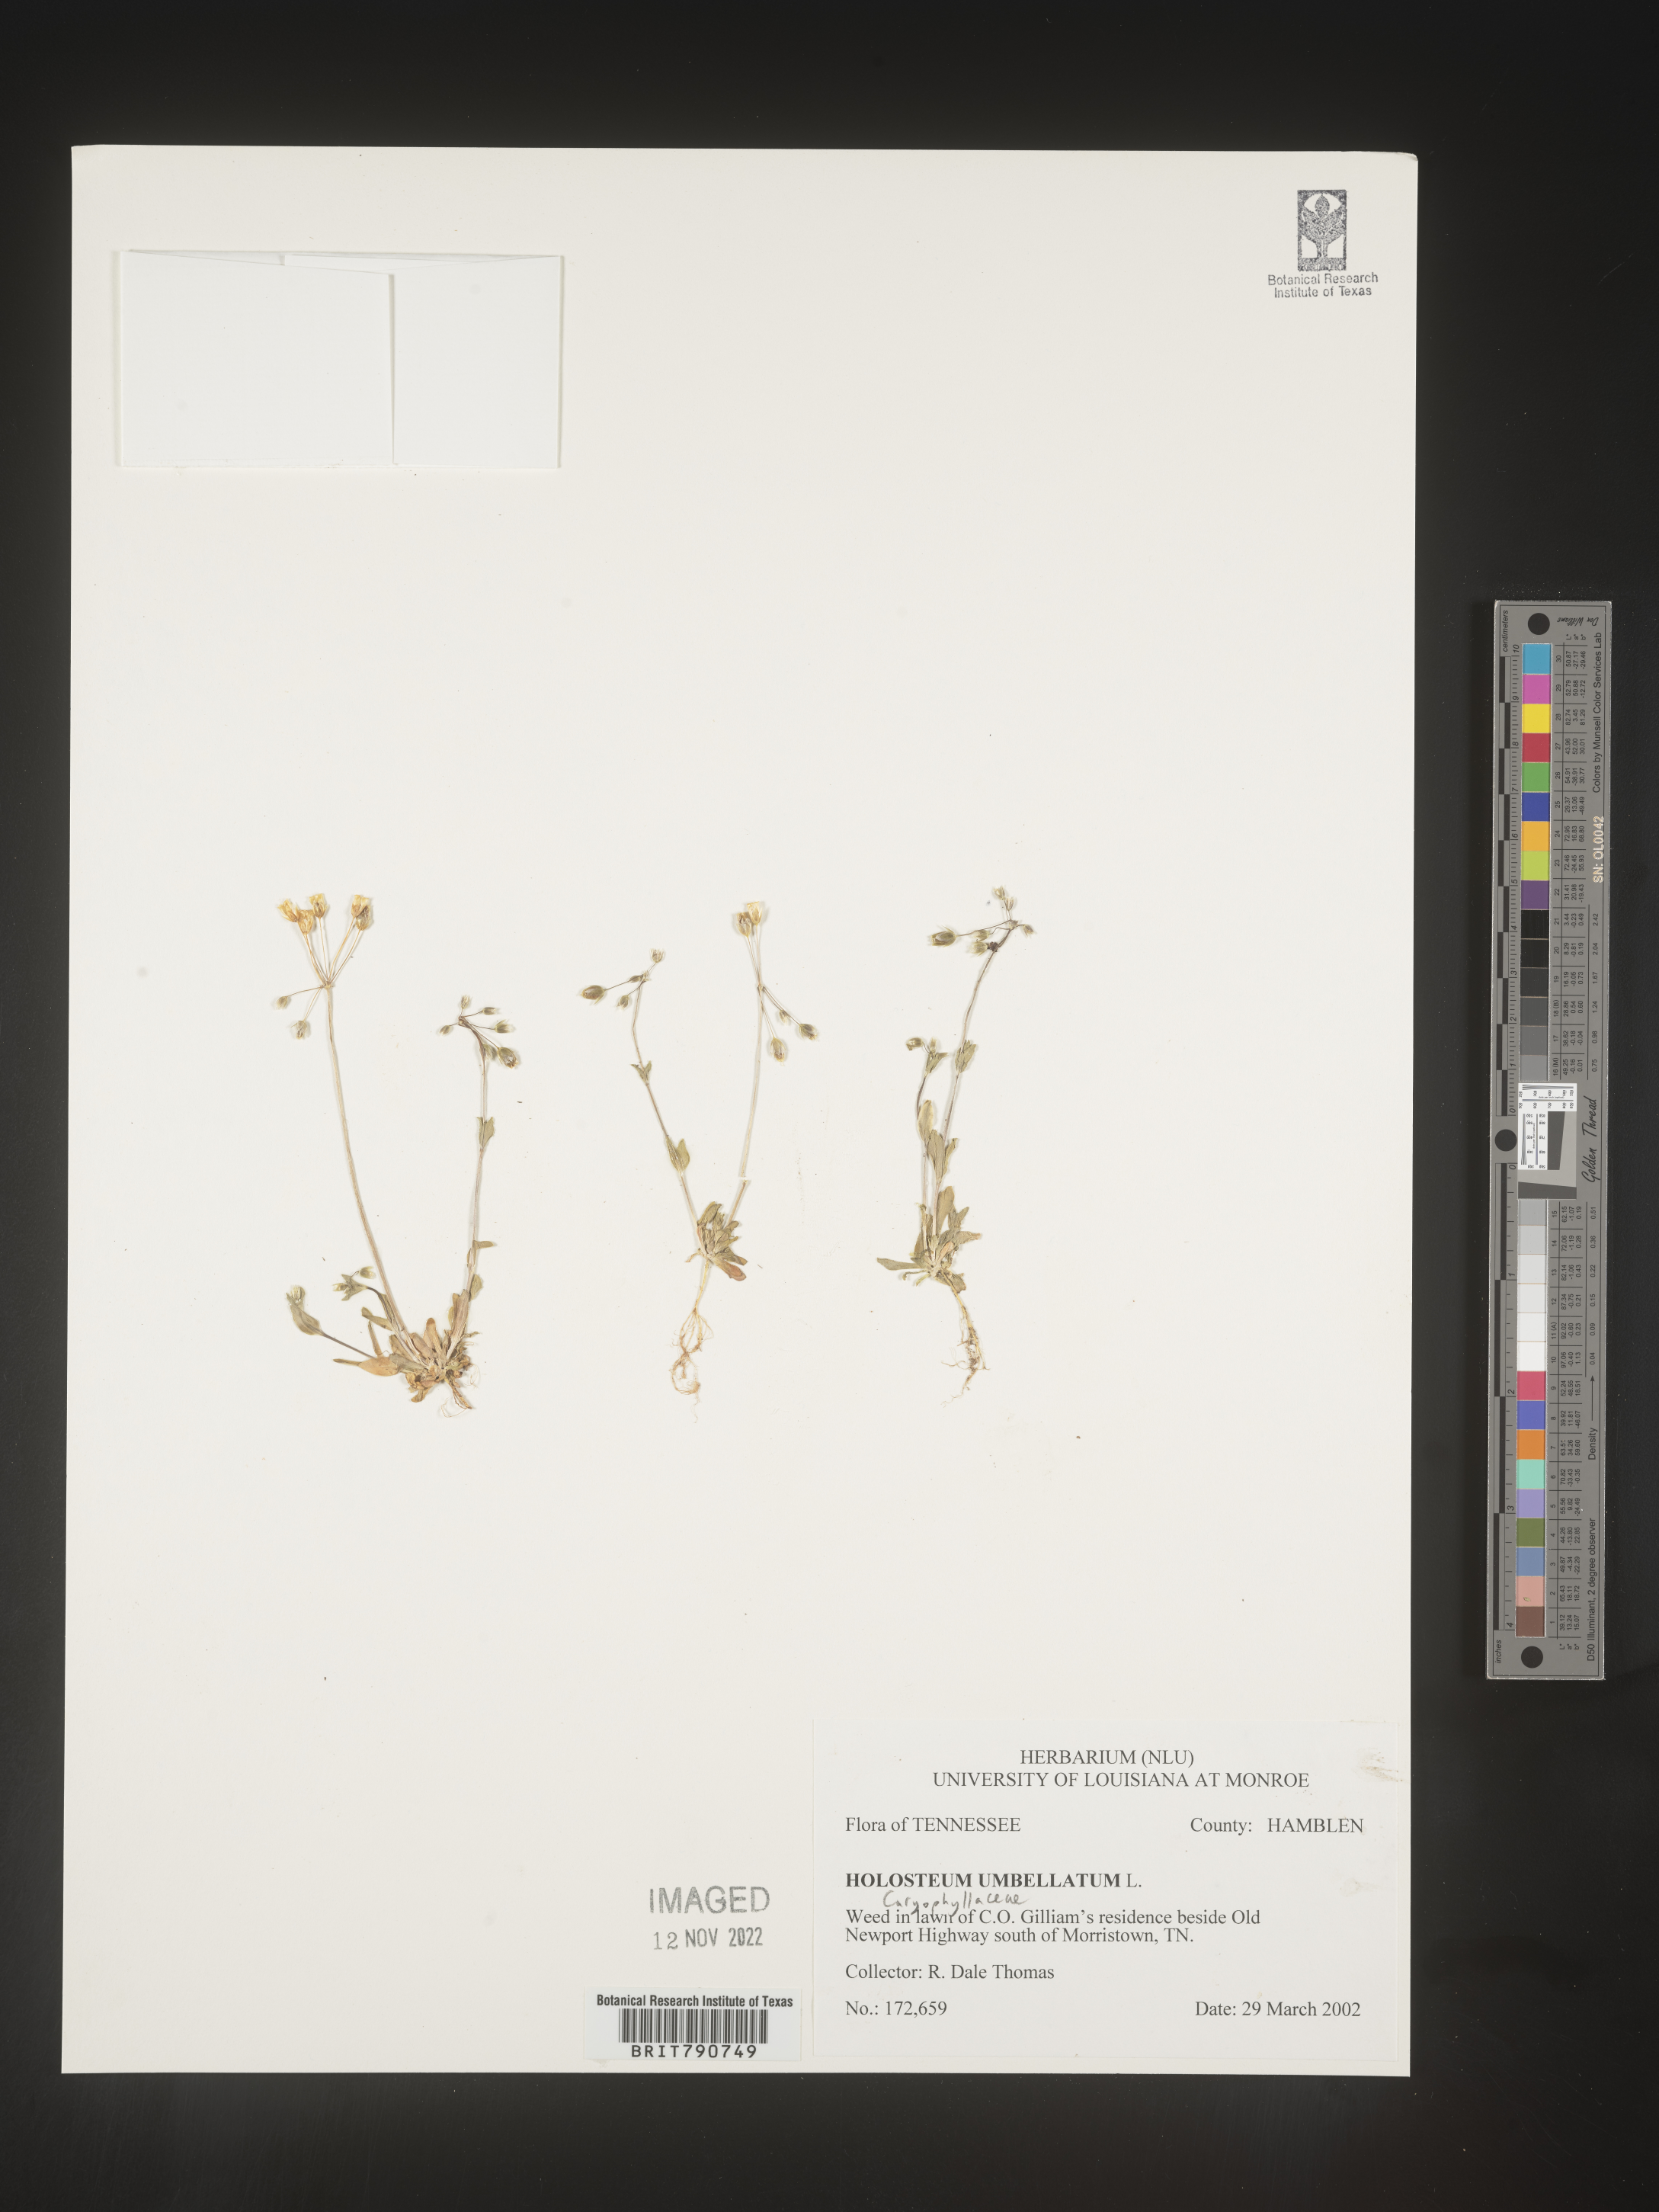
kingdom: Plantae
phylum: Tracheophyta
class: Magnoliopsida
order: Caryophyllales
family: Caryophyllaceae
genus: Holosteum
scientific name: Holosteum
